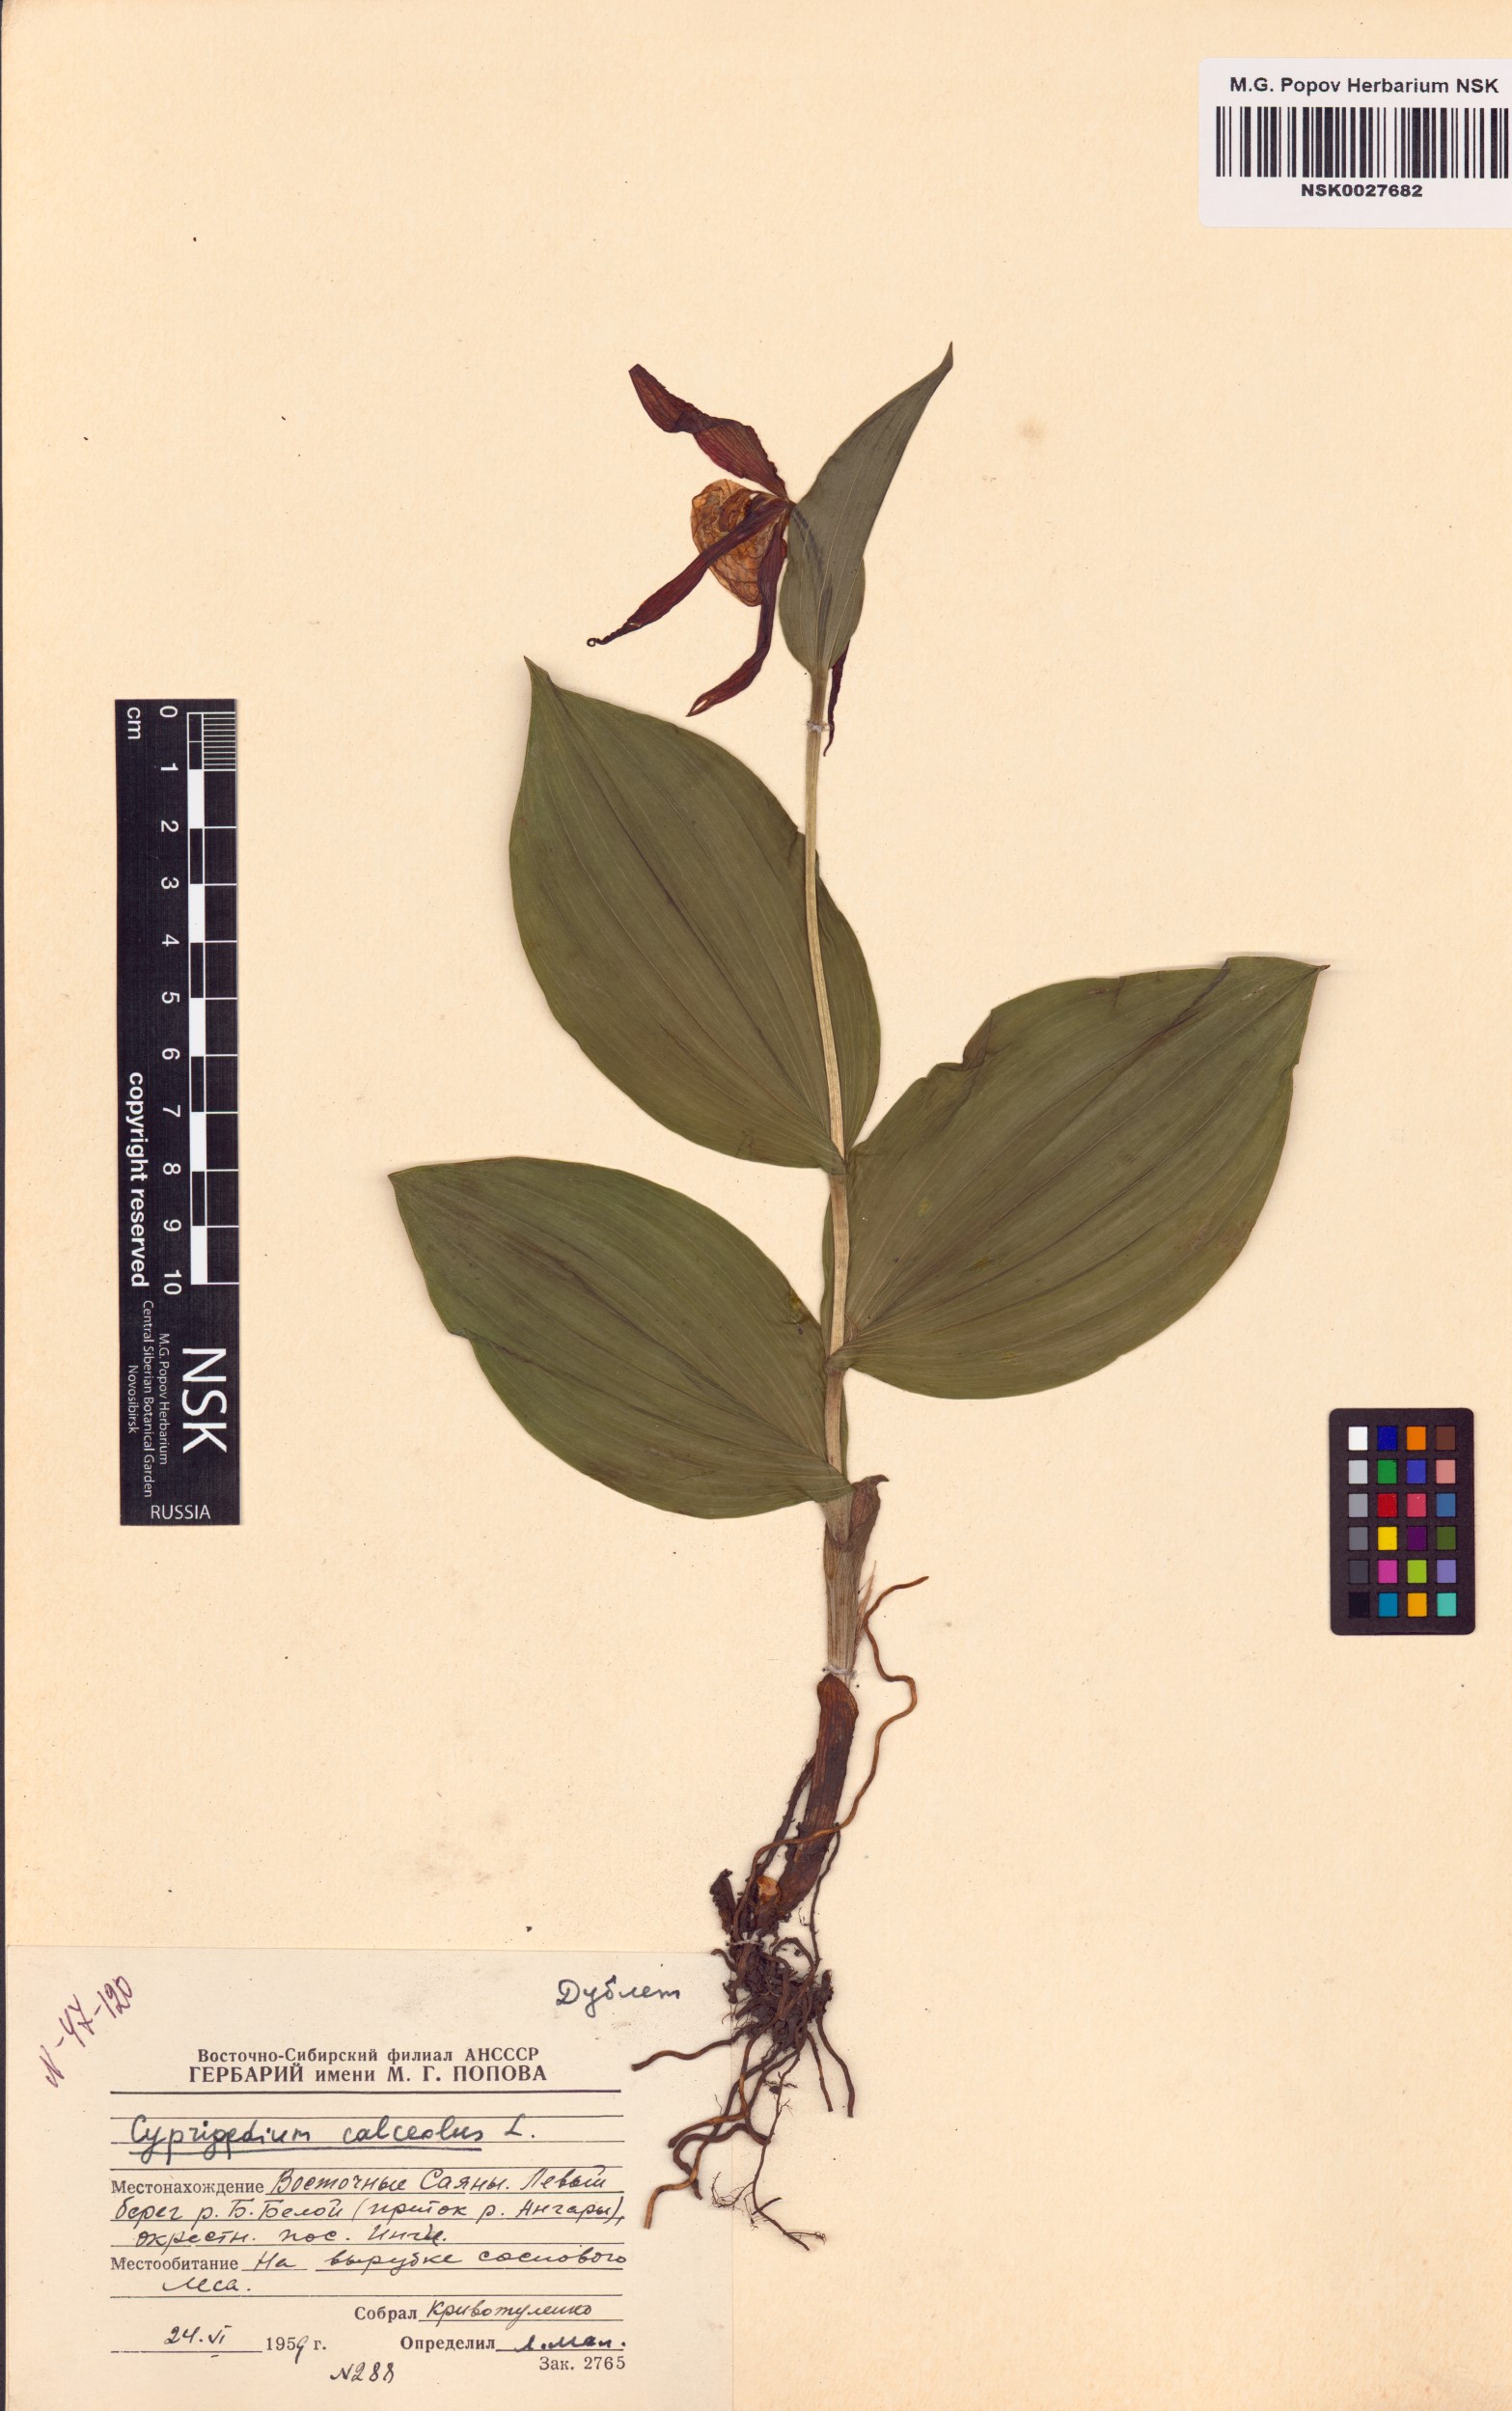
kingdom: Plantae
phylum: Tracheophyta
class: Liliopsida
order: Asparagales
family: Orchidaceae
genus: Cypripedium
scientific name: Cypripedium calceolus
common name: Lady's-slipper
